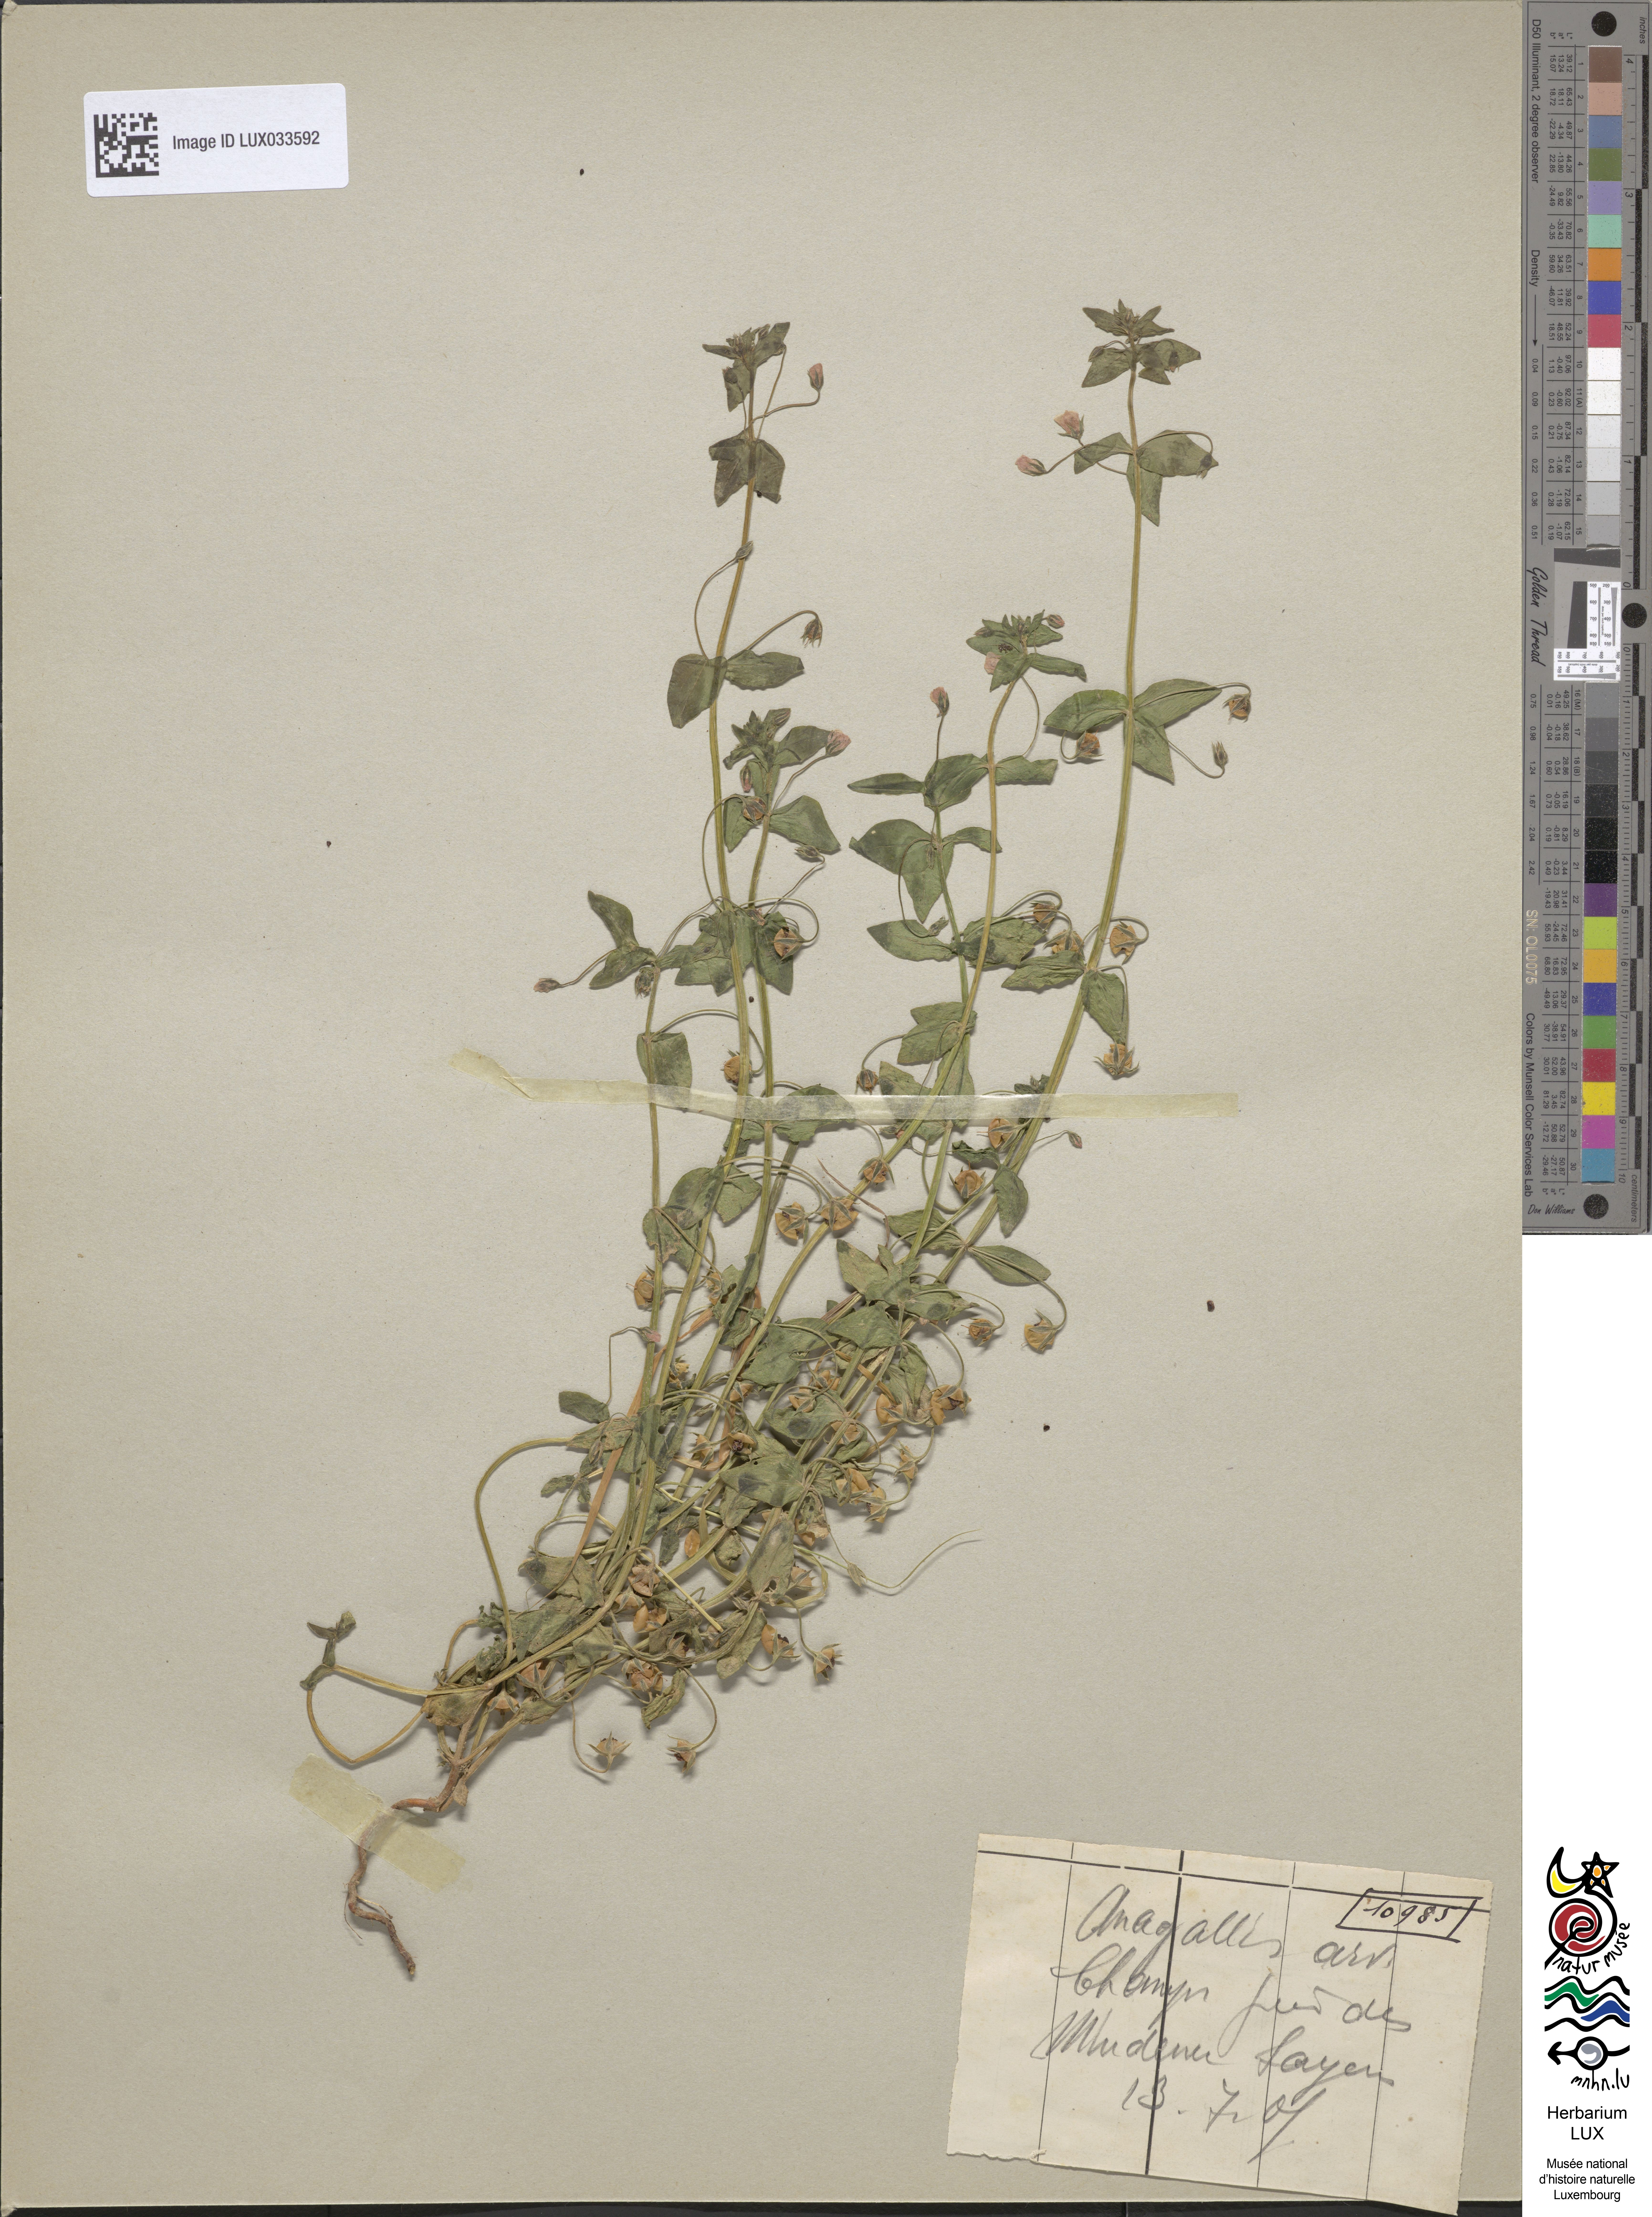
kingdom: Plantae
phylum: Tracheophyta
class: Magnoliopsida
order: Ericales
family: Primulaceae
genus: Lysimachia
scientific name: Lysimachia arvensis
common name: Scarlet pimpernel
